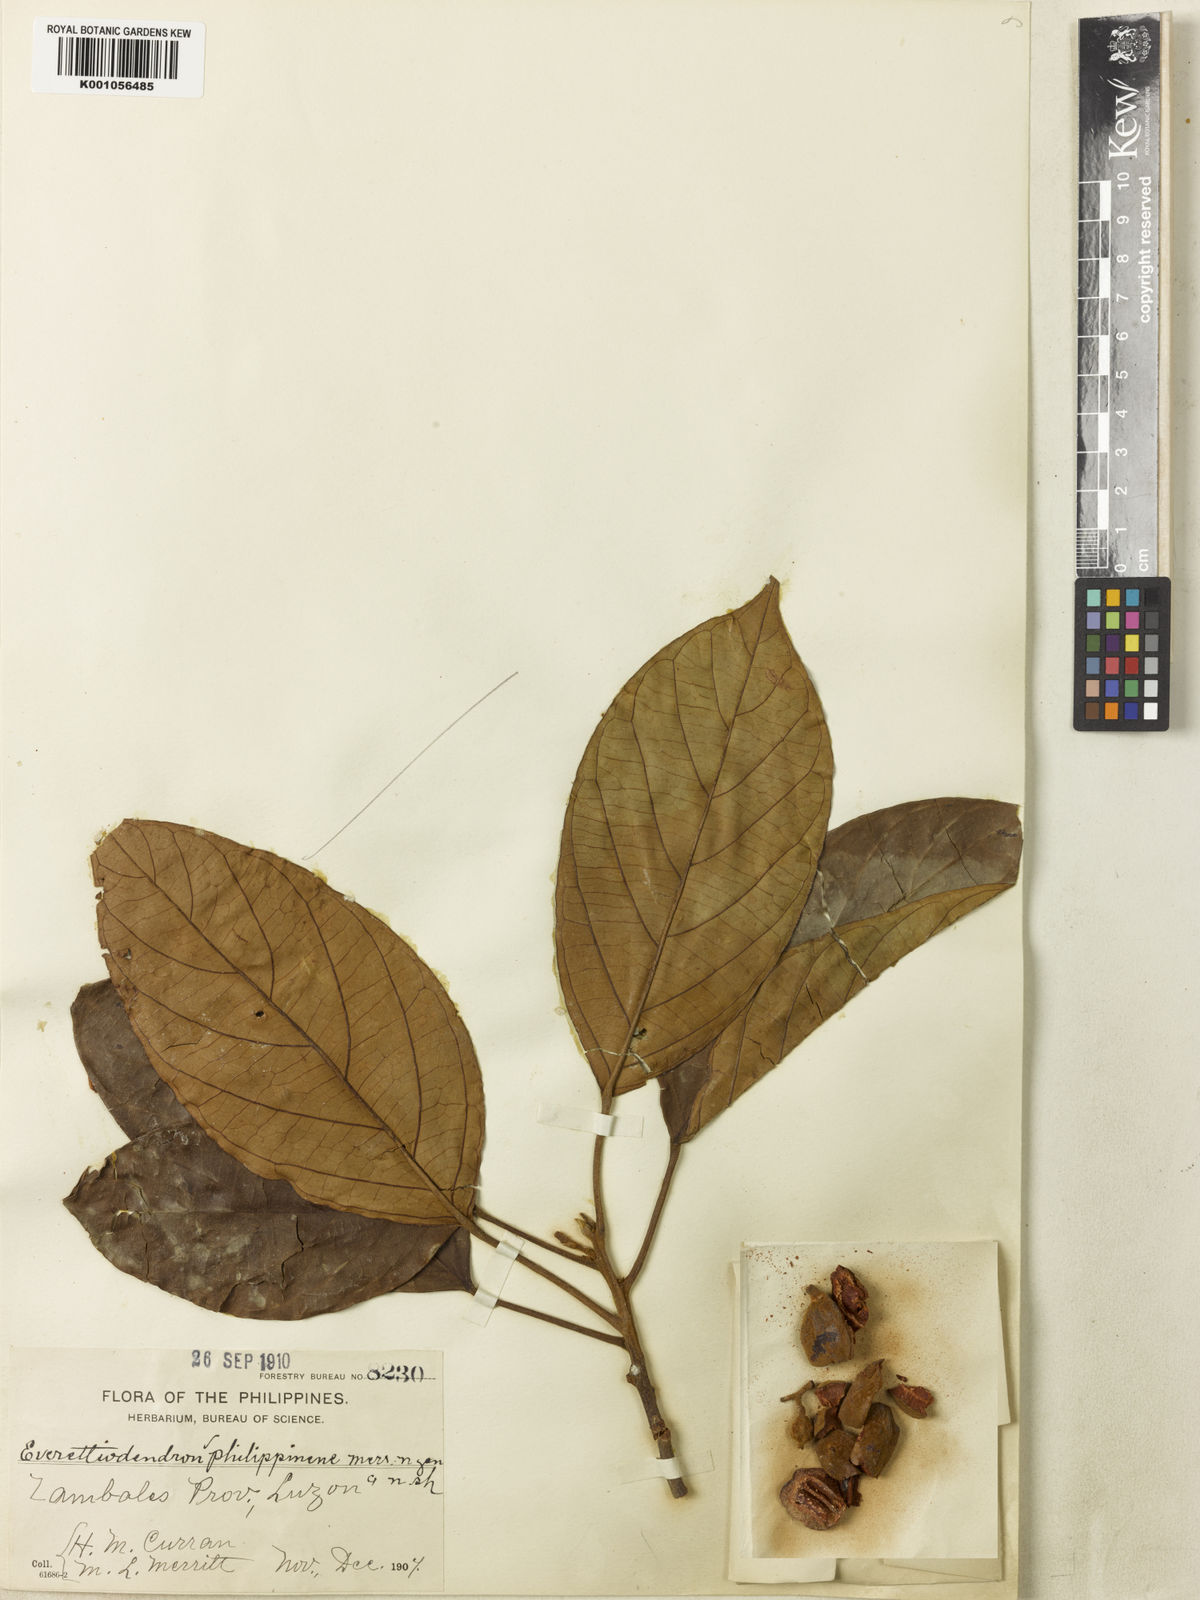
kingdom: Plantae
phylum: Tracheophyta
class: Magnoliopsida
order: Malpighiales
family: Phyllanthaceae
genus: Baccaurea
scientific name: Baccaurea philippinensis
